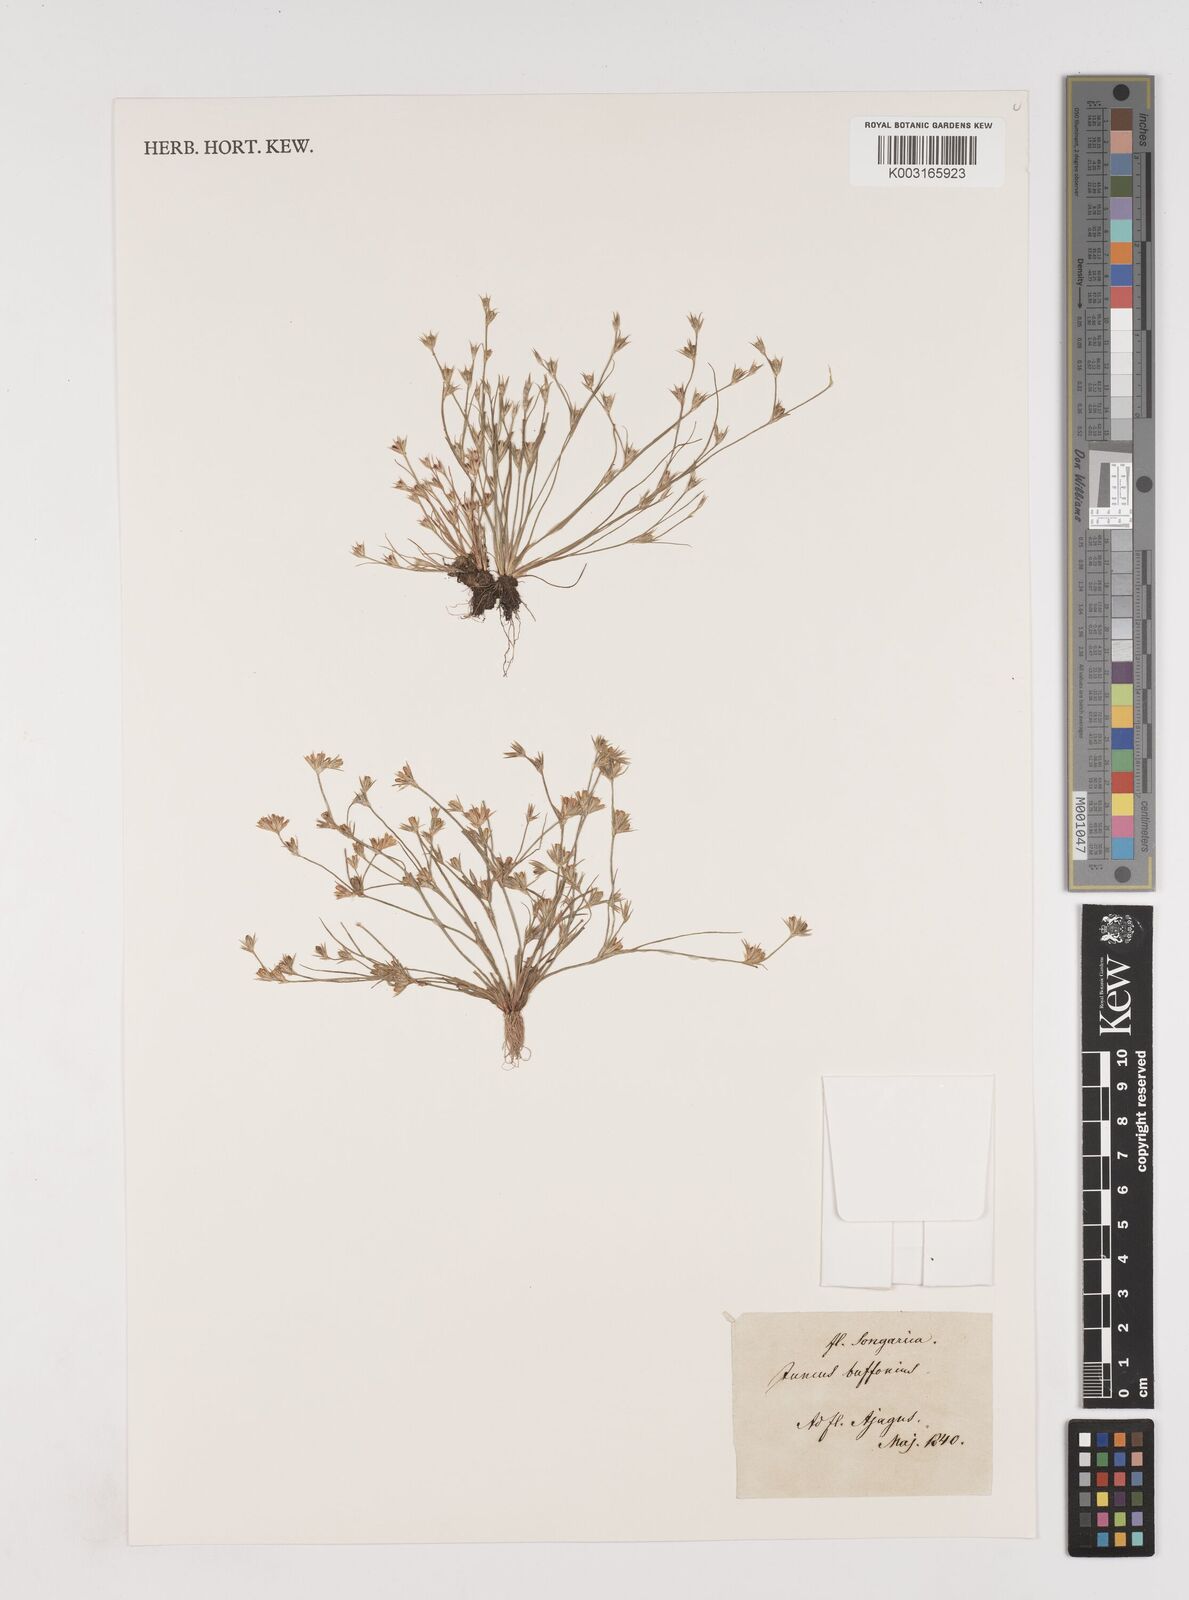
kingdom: Plantae
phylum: Tracheophyta
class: Liliopsida
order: Poales
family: Juncaceae
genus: Juncus
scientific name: Juncus bufonius
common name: Toad rush
